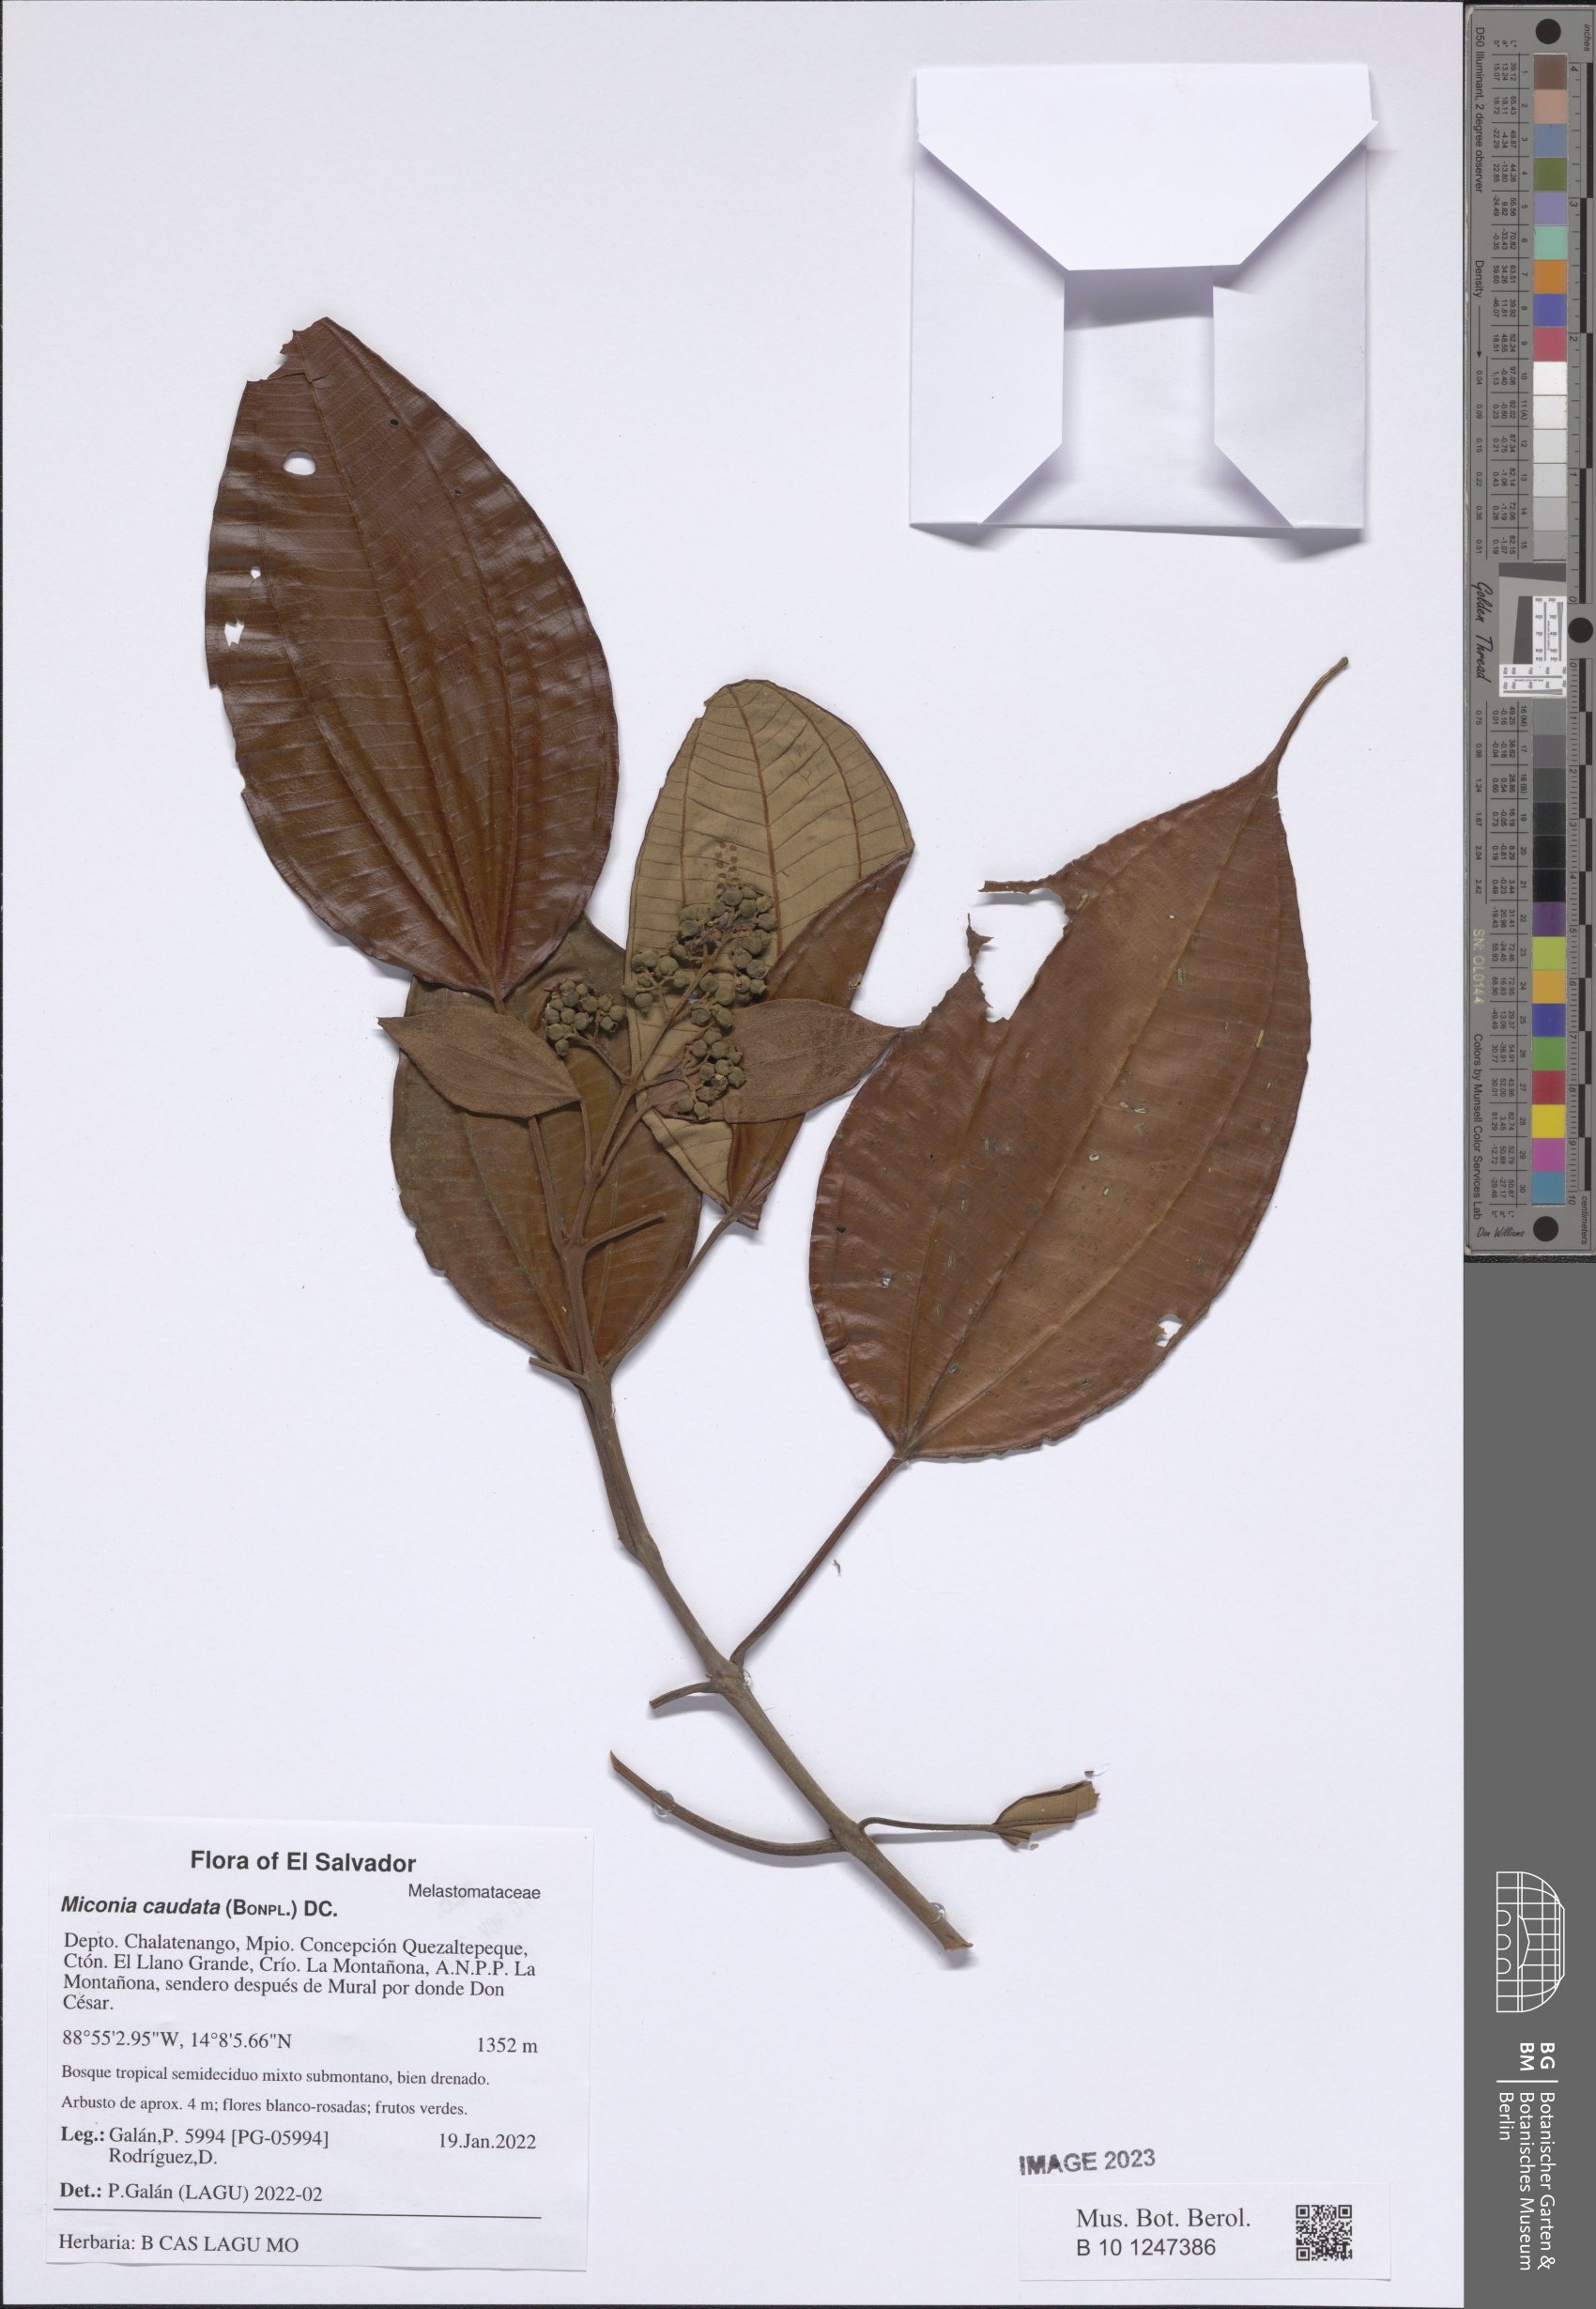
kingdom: Plantae
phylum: Tracheophyta
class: Magnoliopsida
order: Myrtales
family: Melastomataceae
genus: Miconia
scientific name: Miconia caudata
